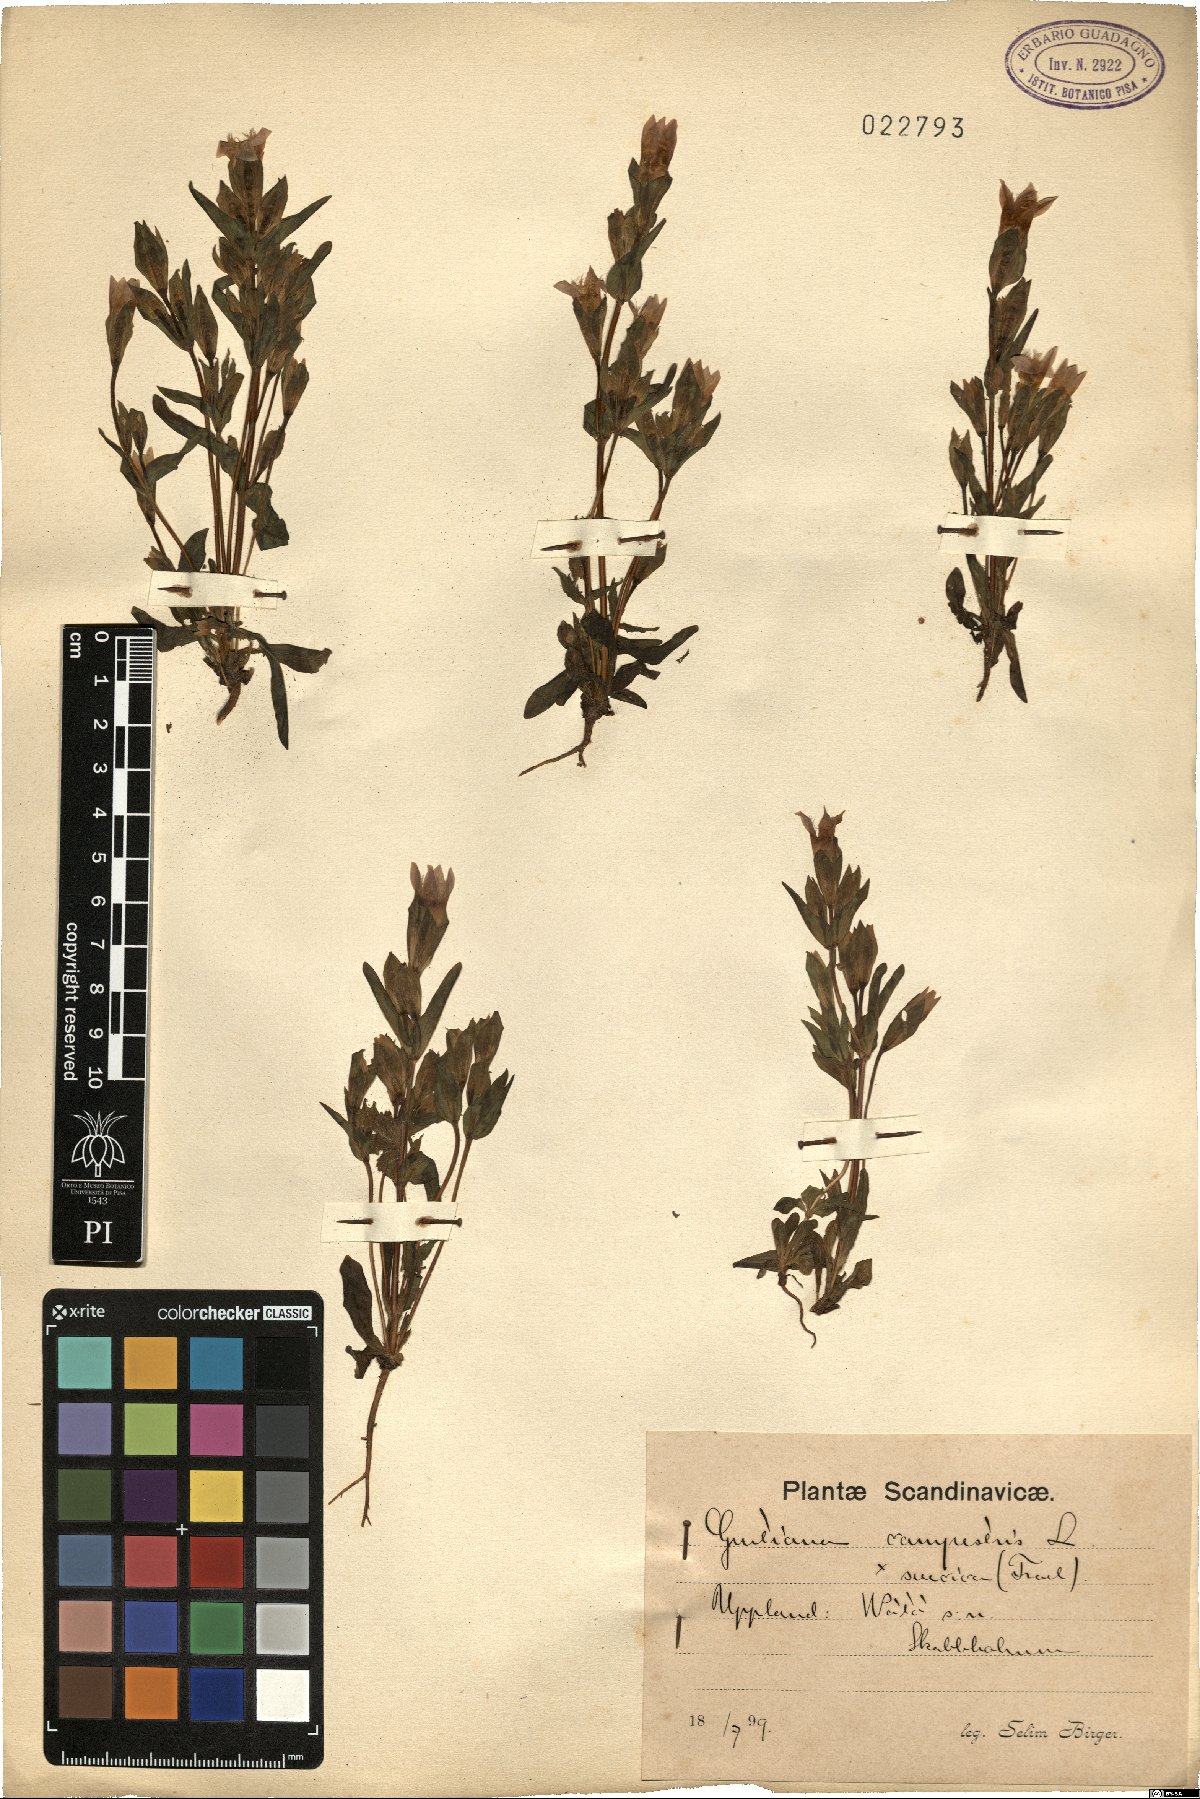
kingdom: Plantae
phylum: Tracheophyta
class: Magnoliopsida
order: Gentianales
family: Gentianaceae
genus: Gentianella
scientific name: Gentianella campestris
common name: Field gentian
